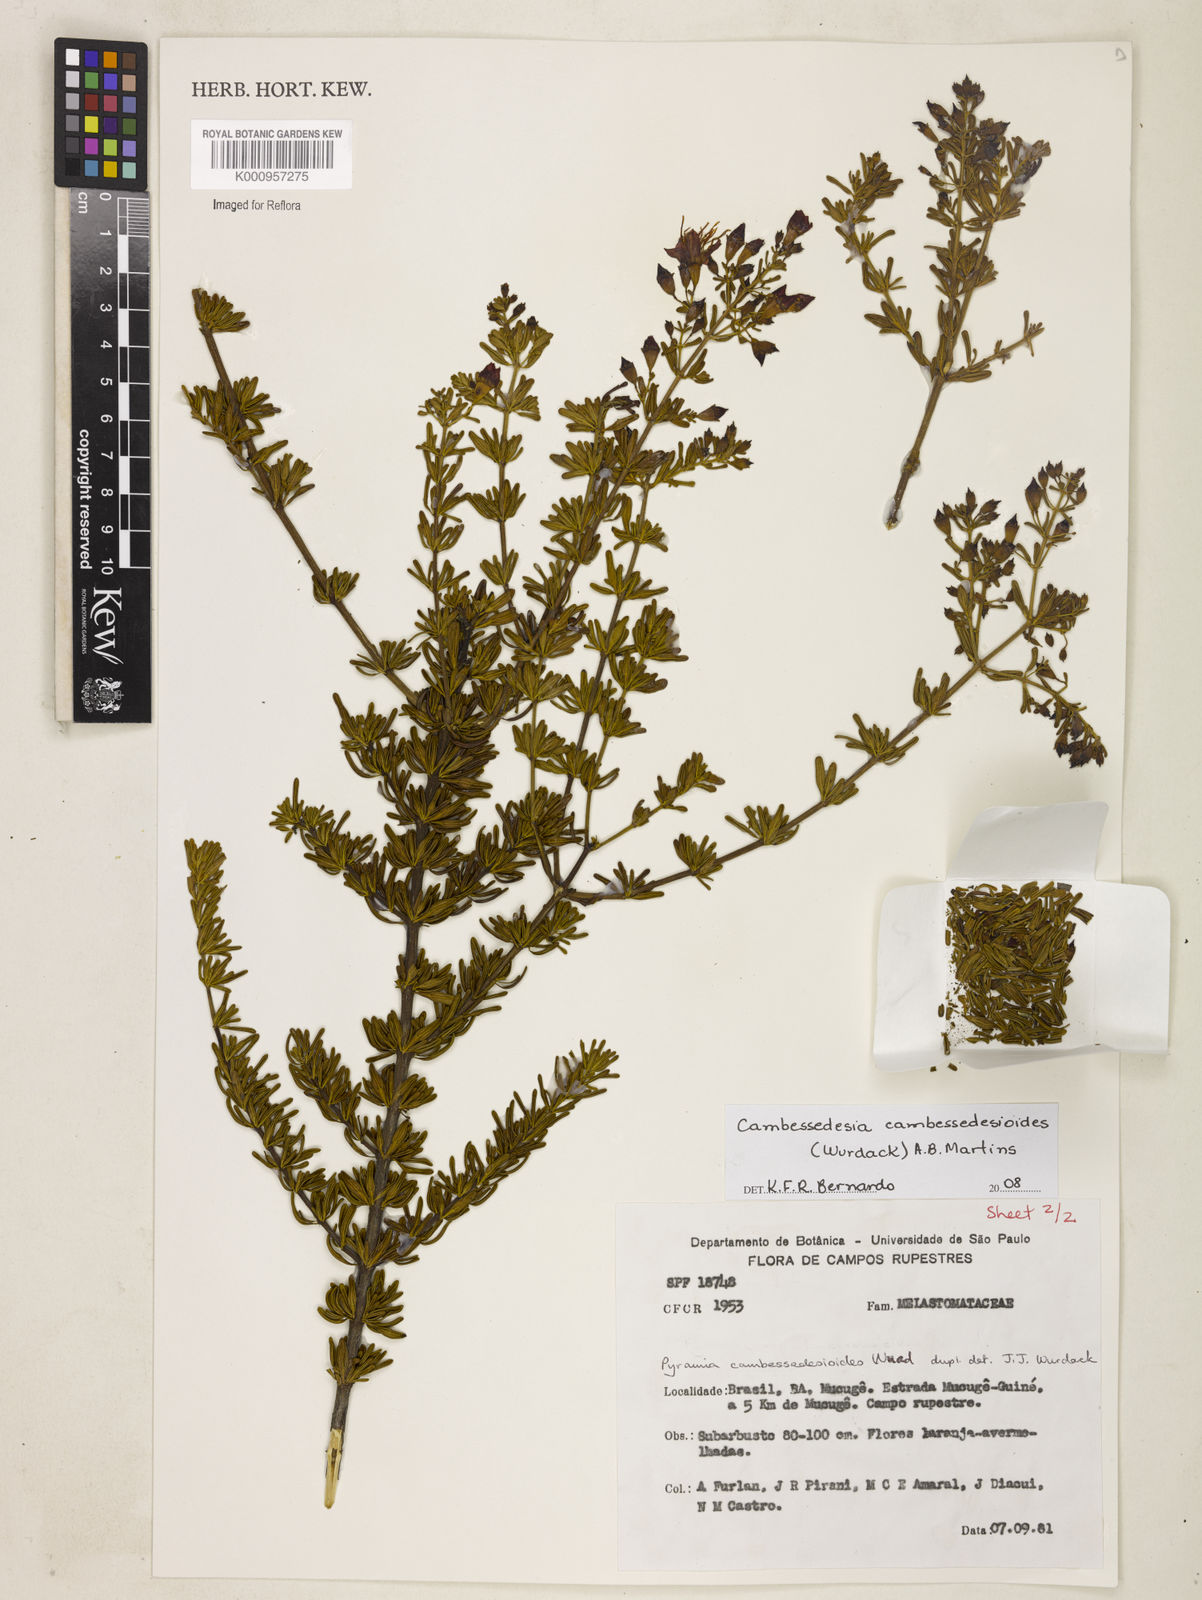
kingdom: Plantae
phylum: Tracheophyta
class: Magnoliopsida
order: Myrtales
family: Melastomataceae
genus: Cambessedesia
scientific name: Cambessedesia cambessedesioides
